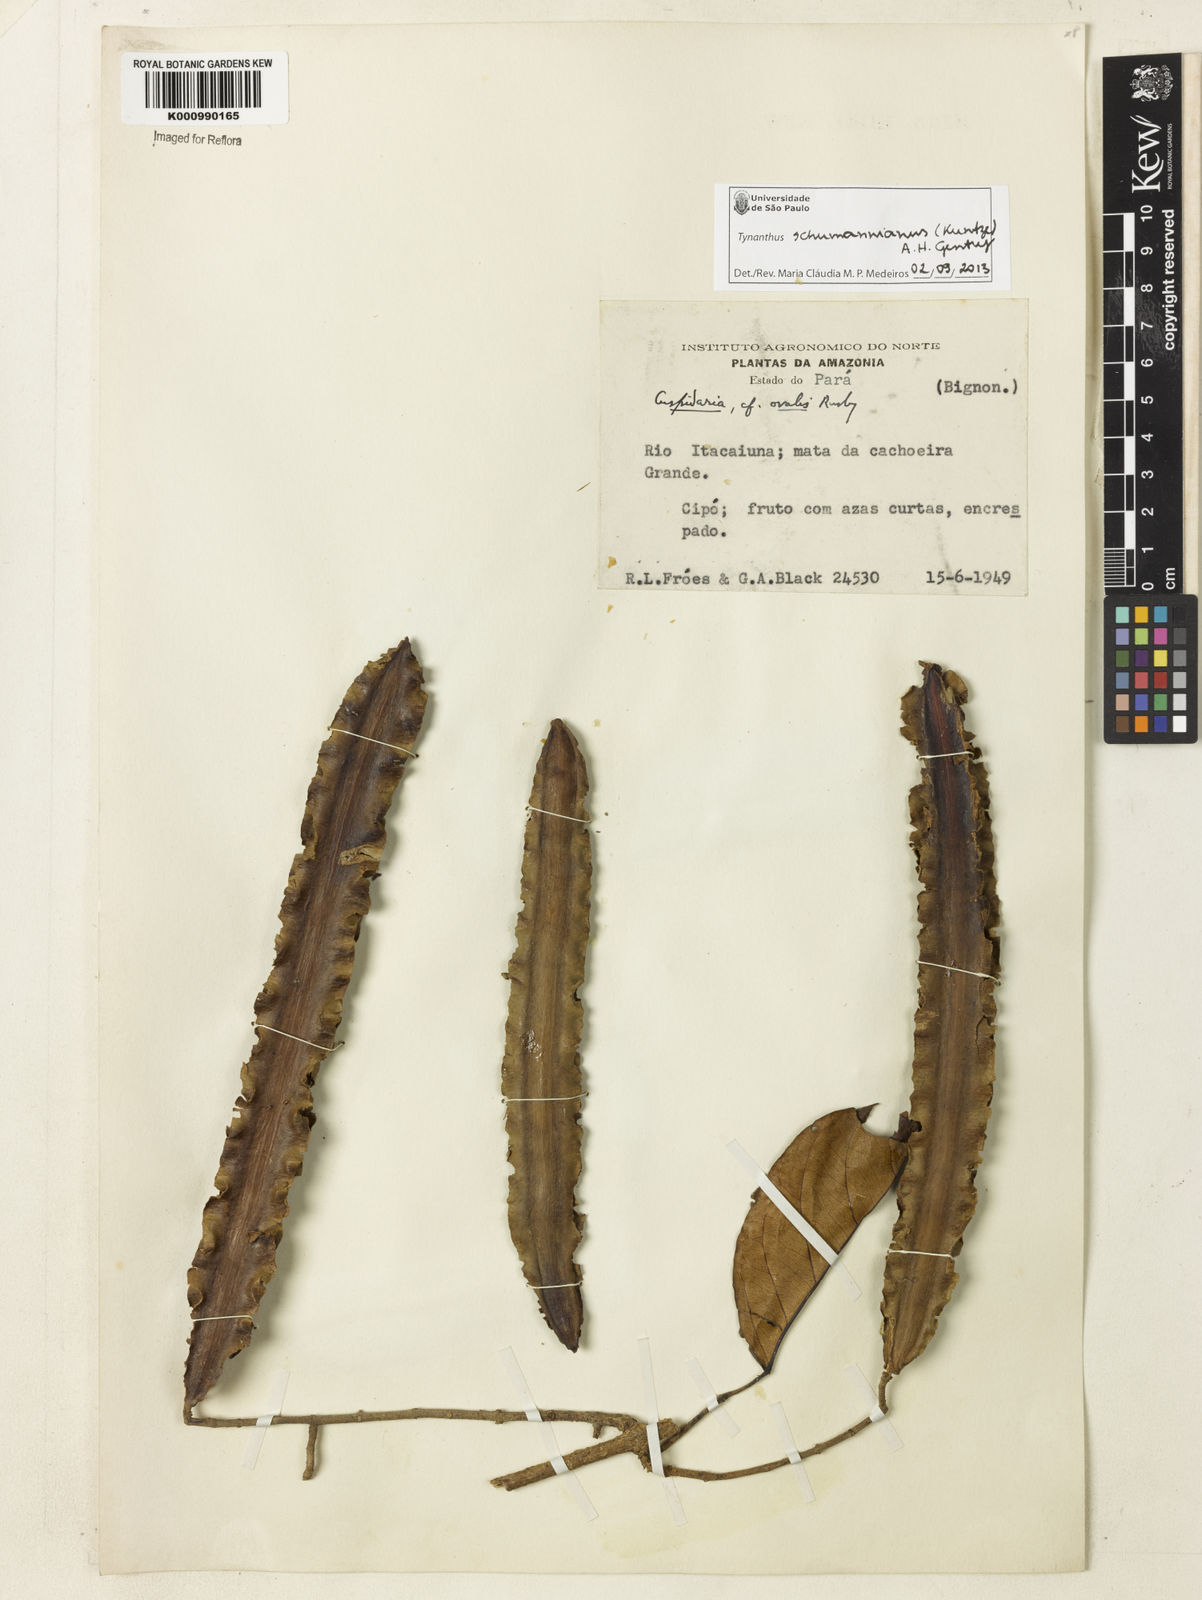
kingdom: Plantae
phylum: Tracheophyta
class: Magnoliopsida
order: Lamiales
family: Bignoniaceae
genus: Tynanthus
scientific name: Tynanthus schumannianus
